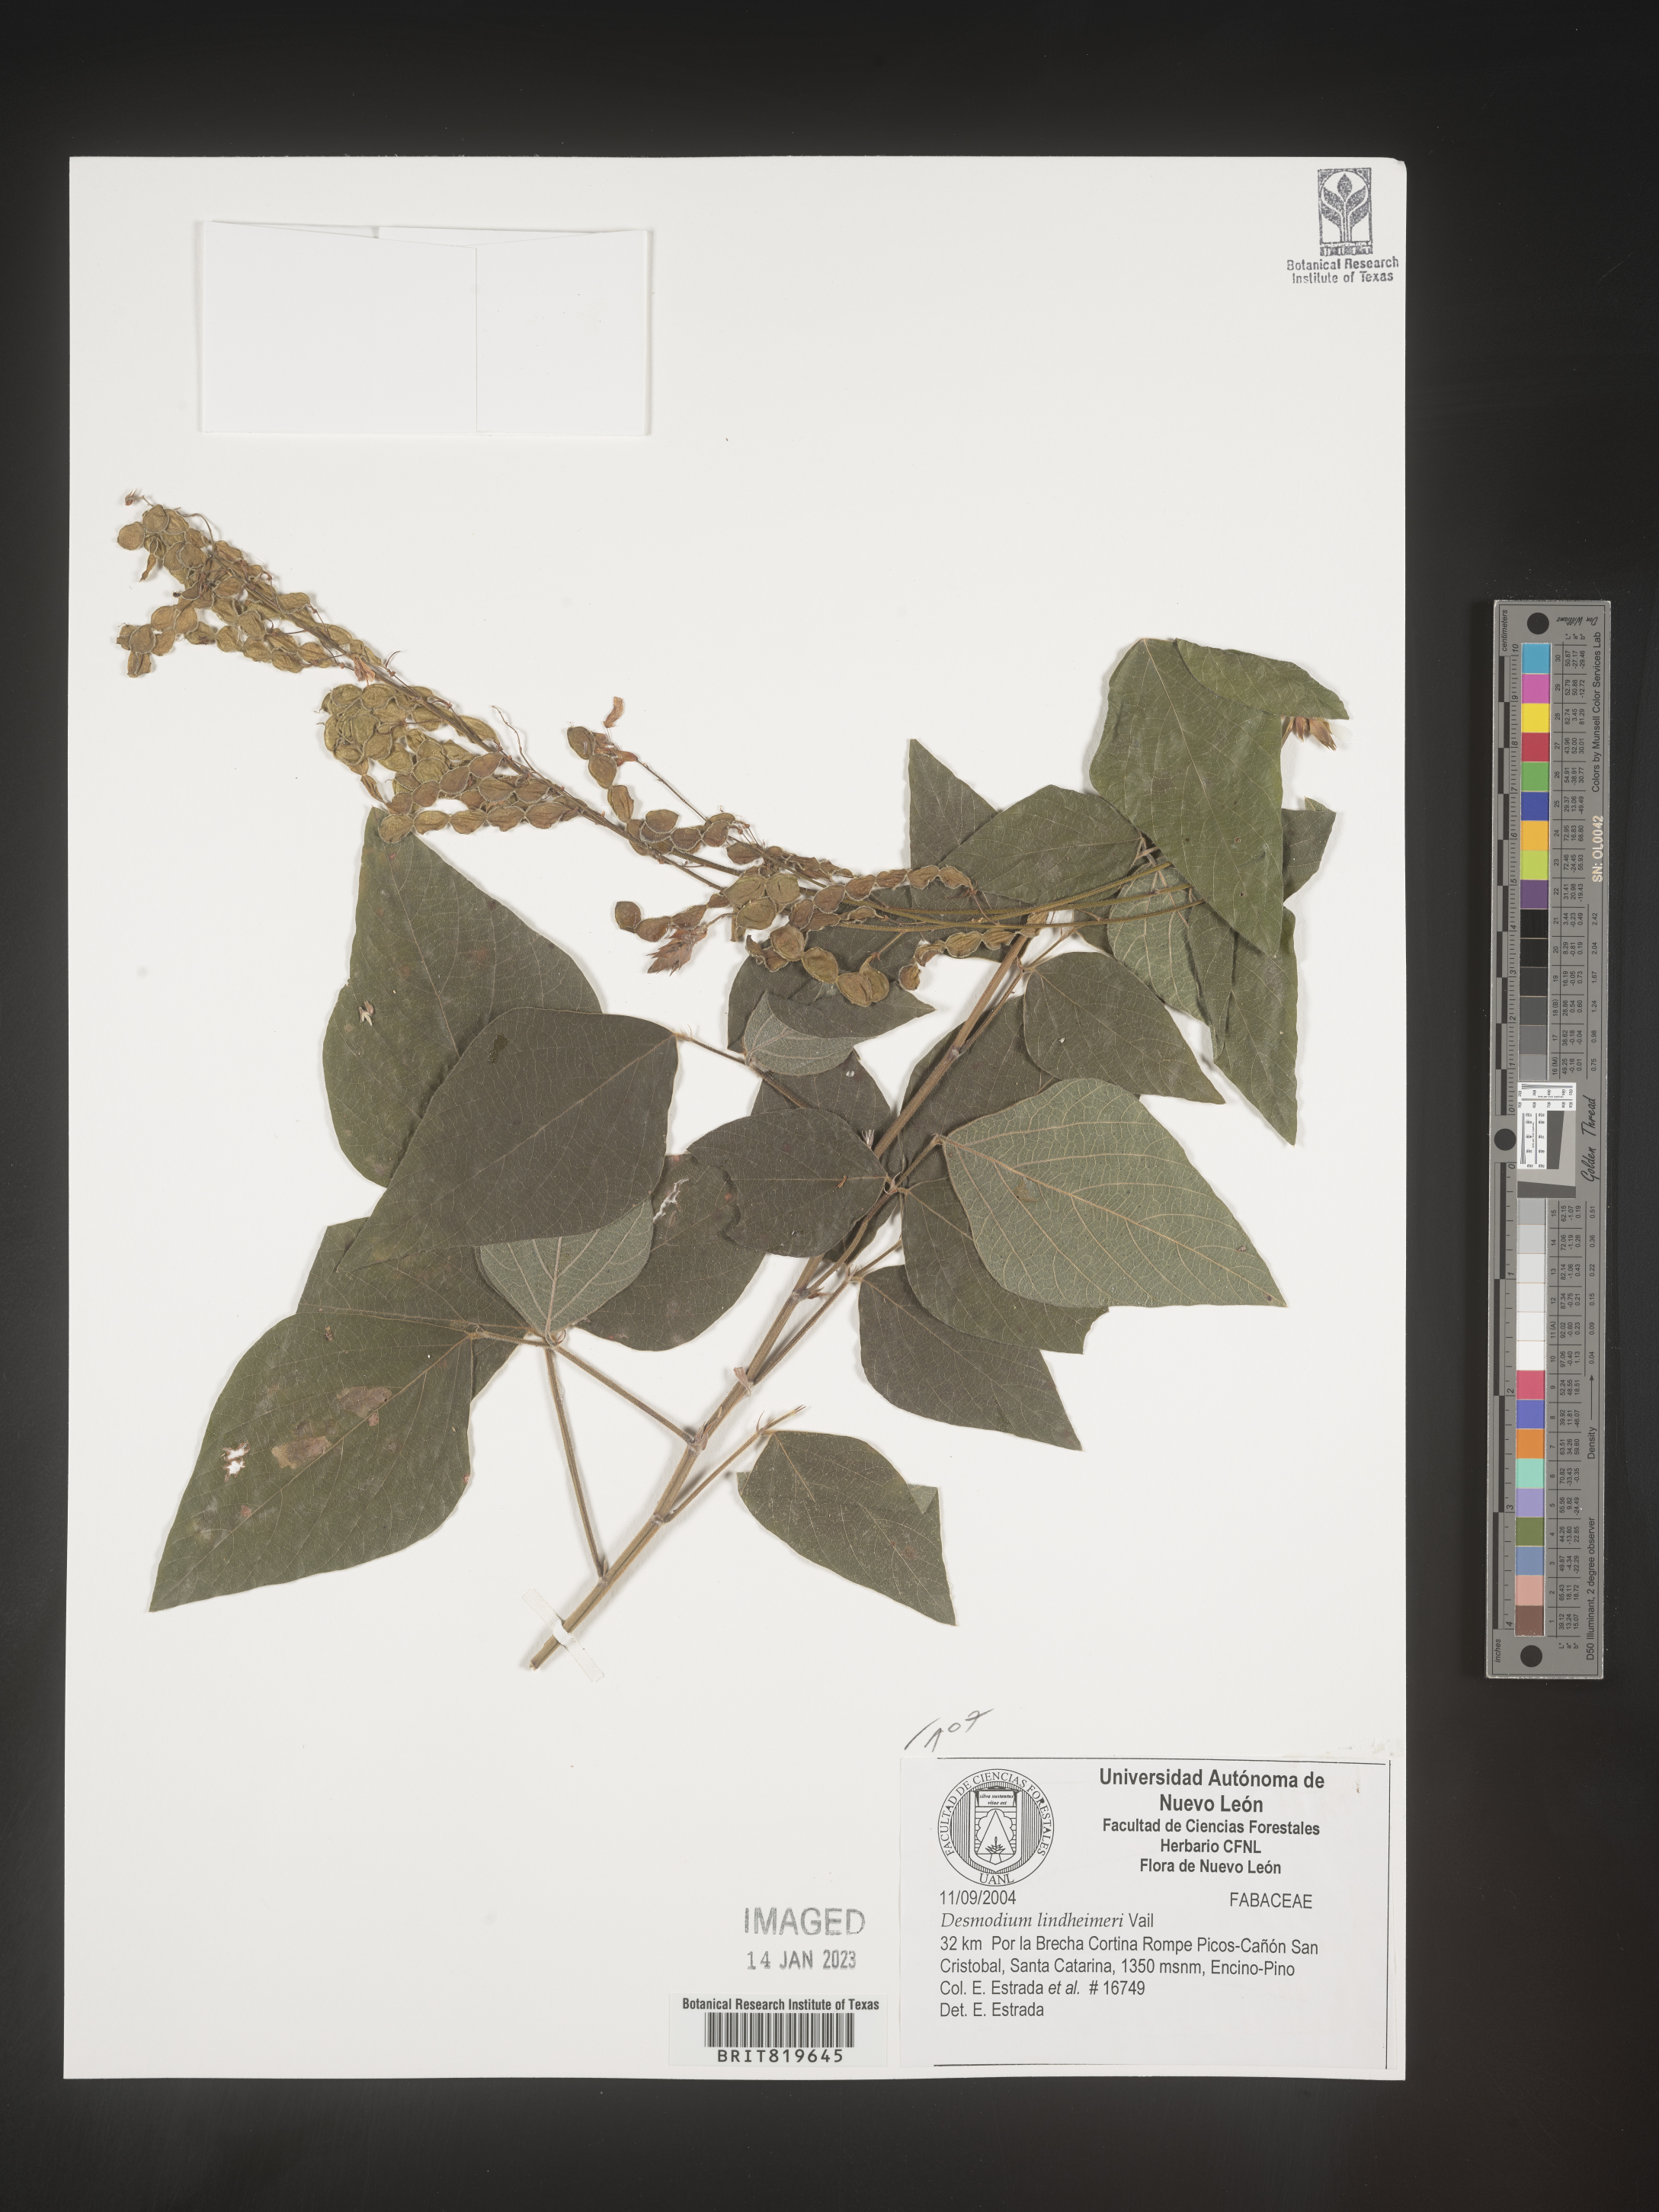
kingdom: Plantae
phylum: Tracheophyta
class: Magnoliopsida
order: Fabales
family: Fabaceae
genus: Desmodium
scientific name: Desmodium
